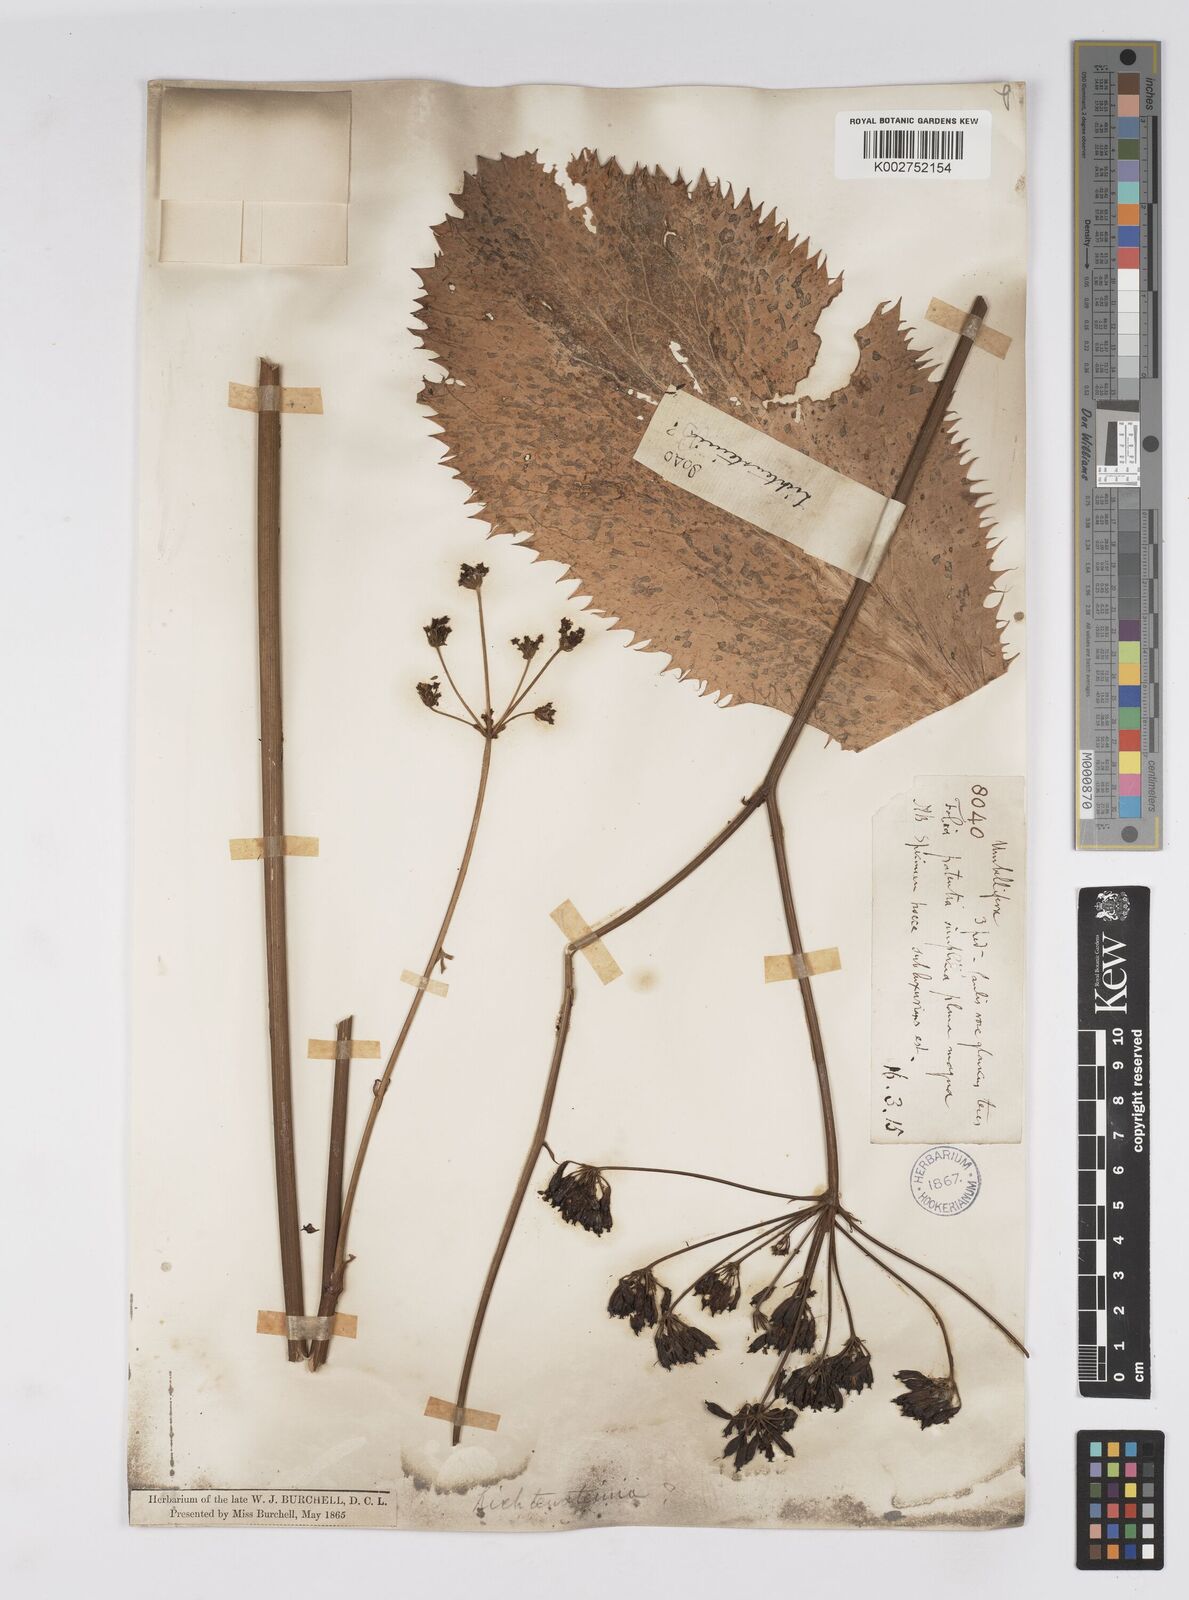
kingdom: Plantae
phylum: Tracheophyta
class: Magnoliopsida
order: Apiales
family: Apiaceae
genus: Lichtensteinia
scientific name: Lichtensteinia
